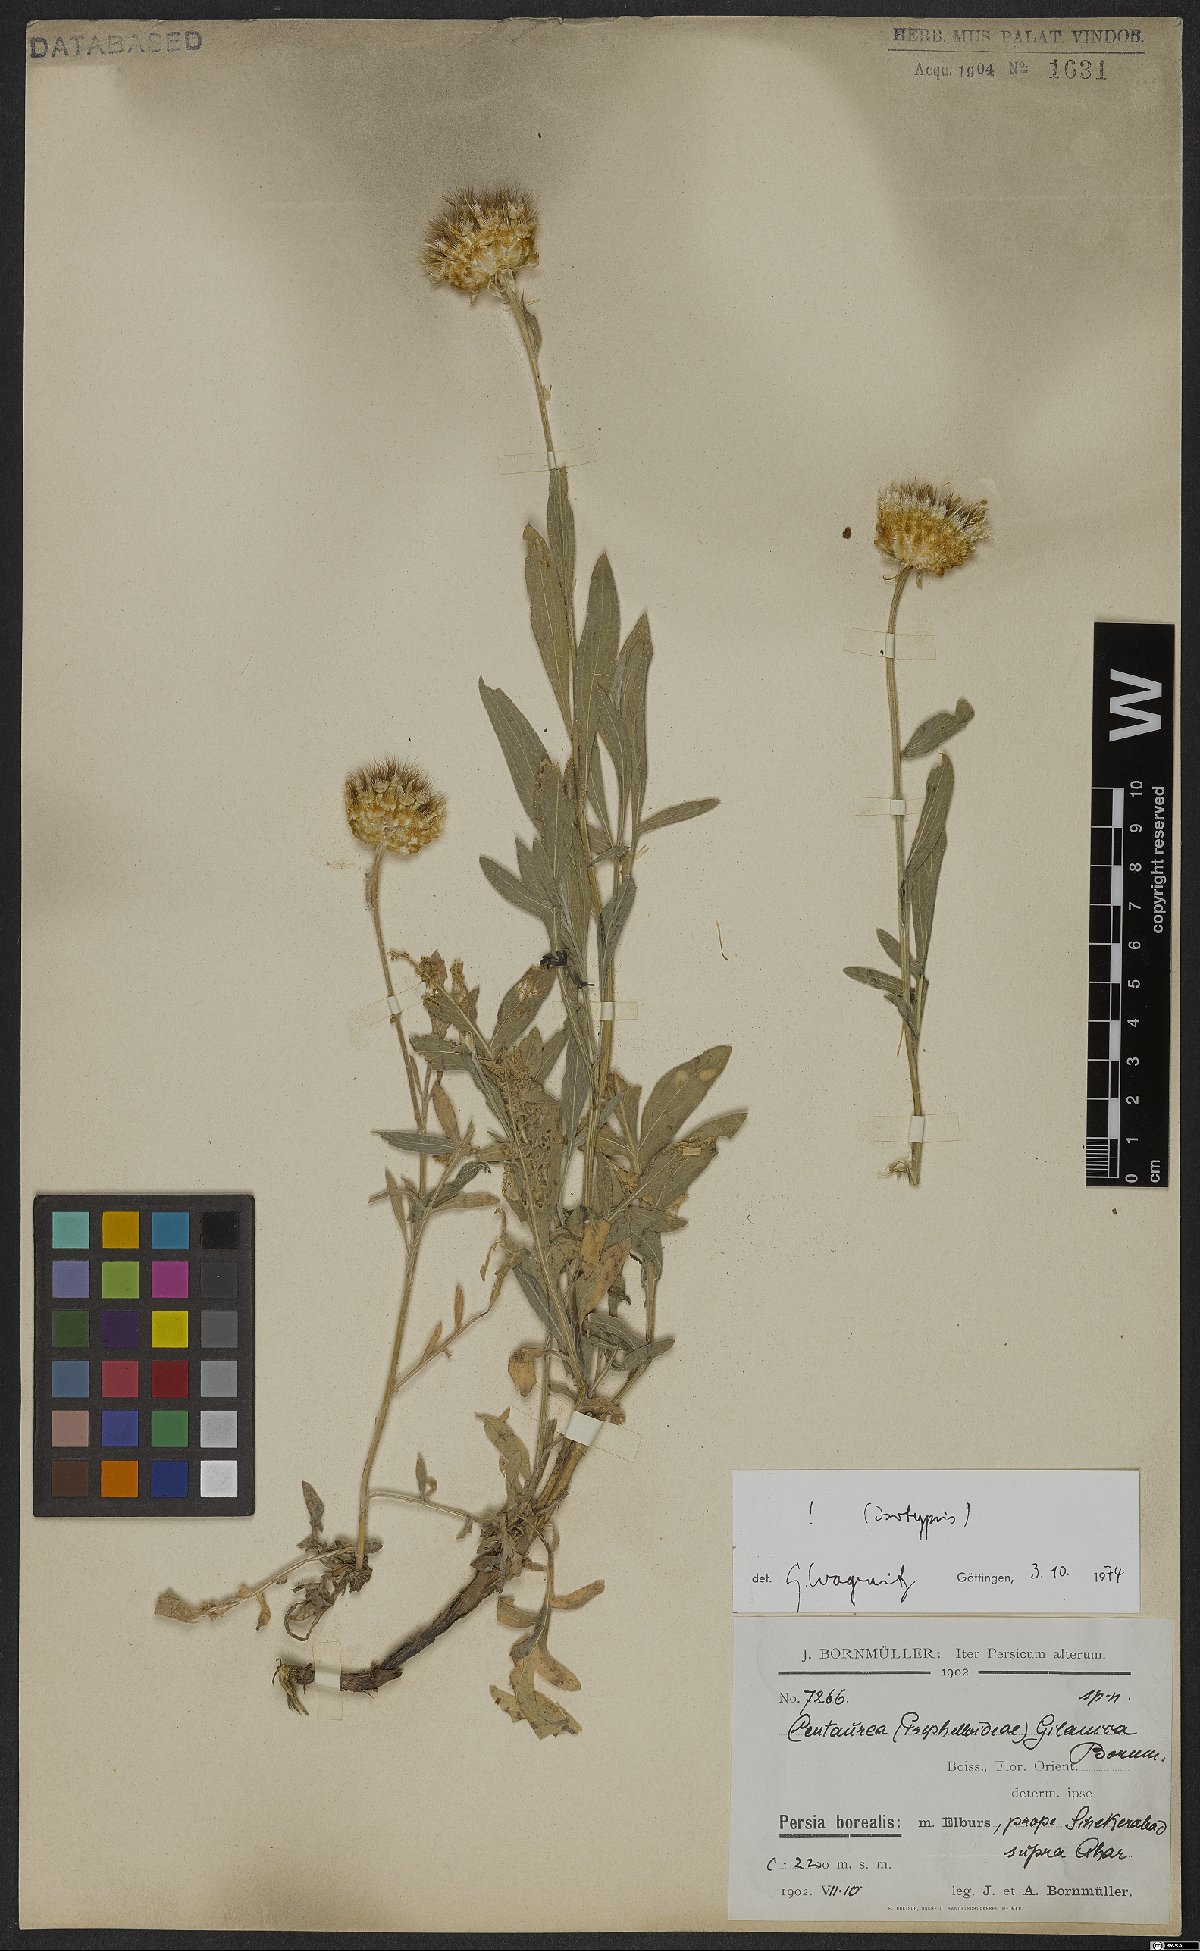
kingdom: Plantae
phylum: Tracheophyta
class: Magnoliopsida
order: Asterales
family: Asteraceae
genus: Psephellus
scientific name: Psephellus gilanicus
